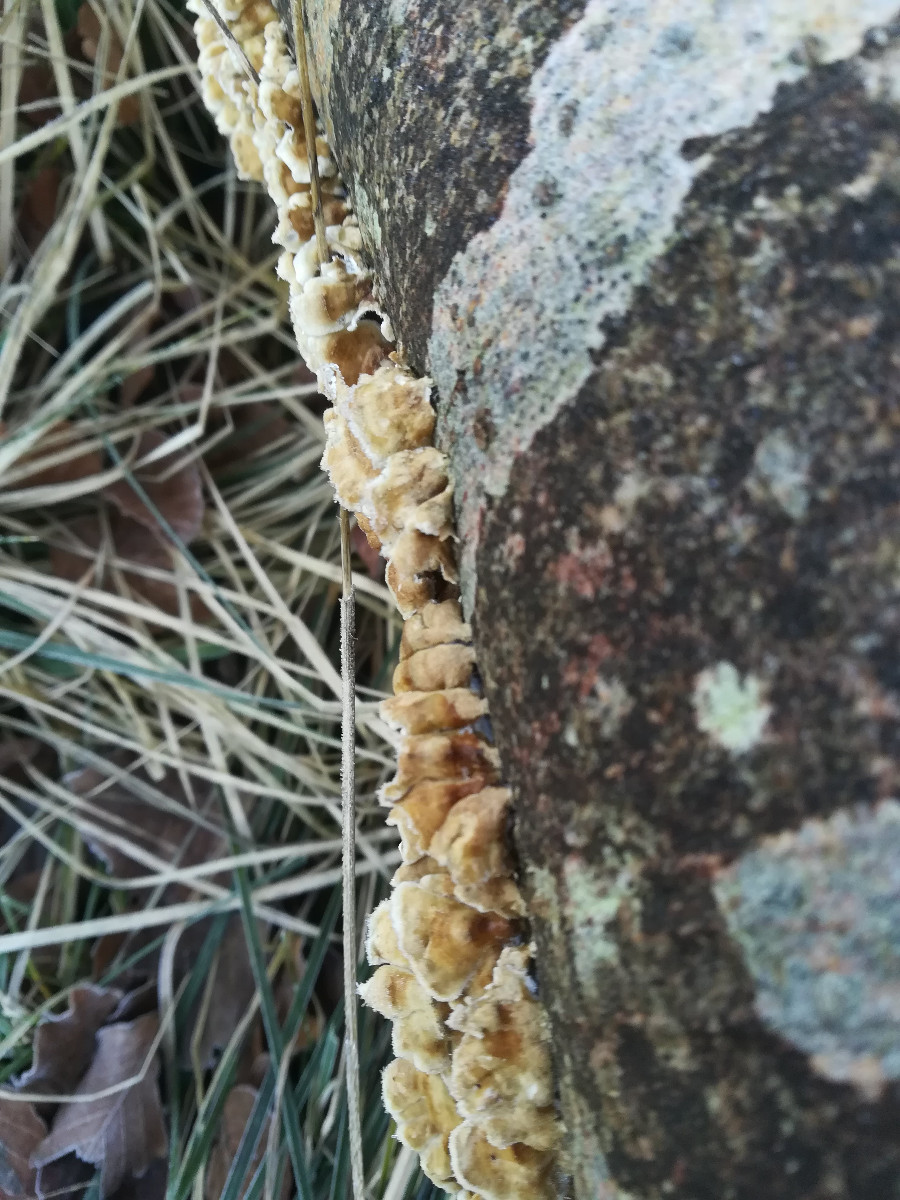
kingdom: Fungi
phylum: Basidiomycota
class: Agaricomycetes
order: Amylocorticiales
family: Amylocorticiaceae
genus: Plicaturopsis
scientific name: Plicaturopsis crispa
